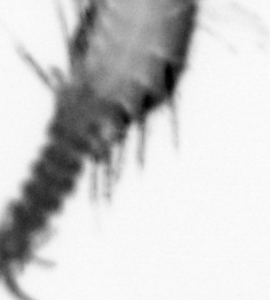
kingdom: Animalia
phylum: Annelida
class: Polychaeta
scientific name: Polychaeta
